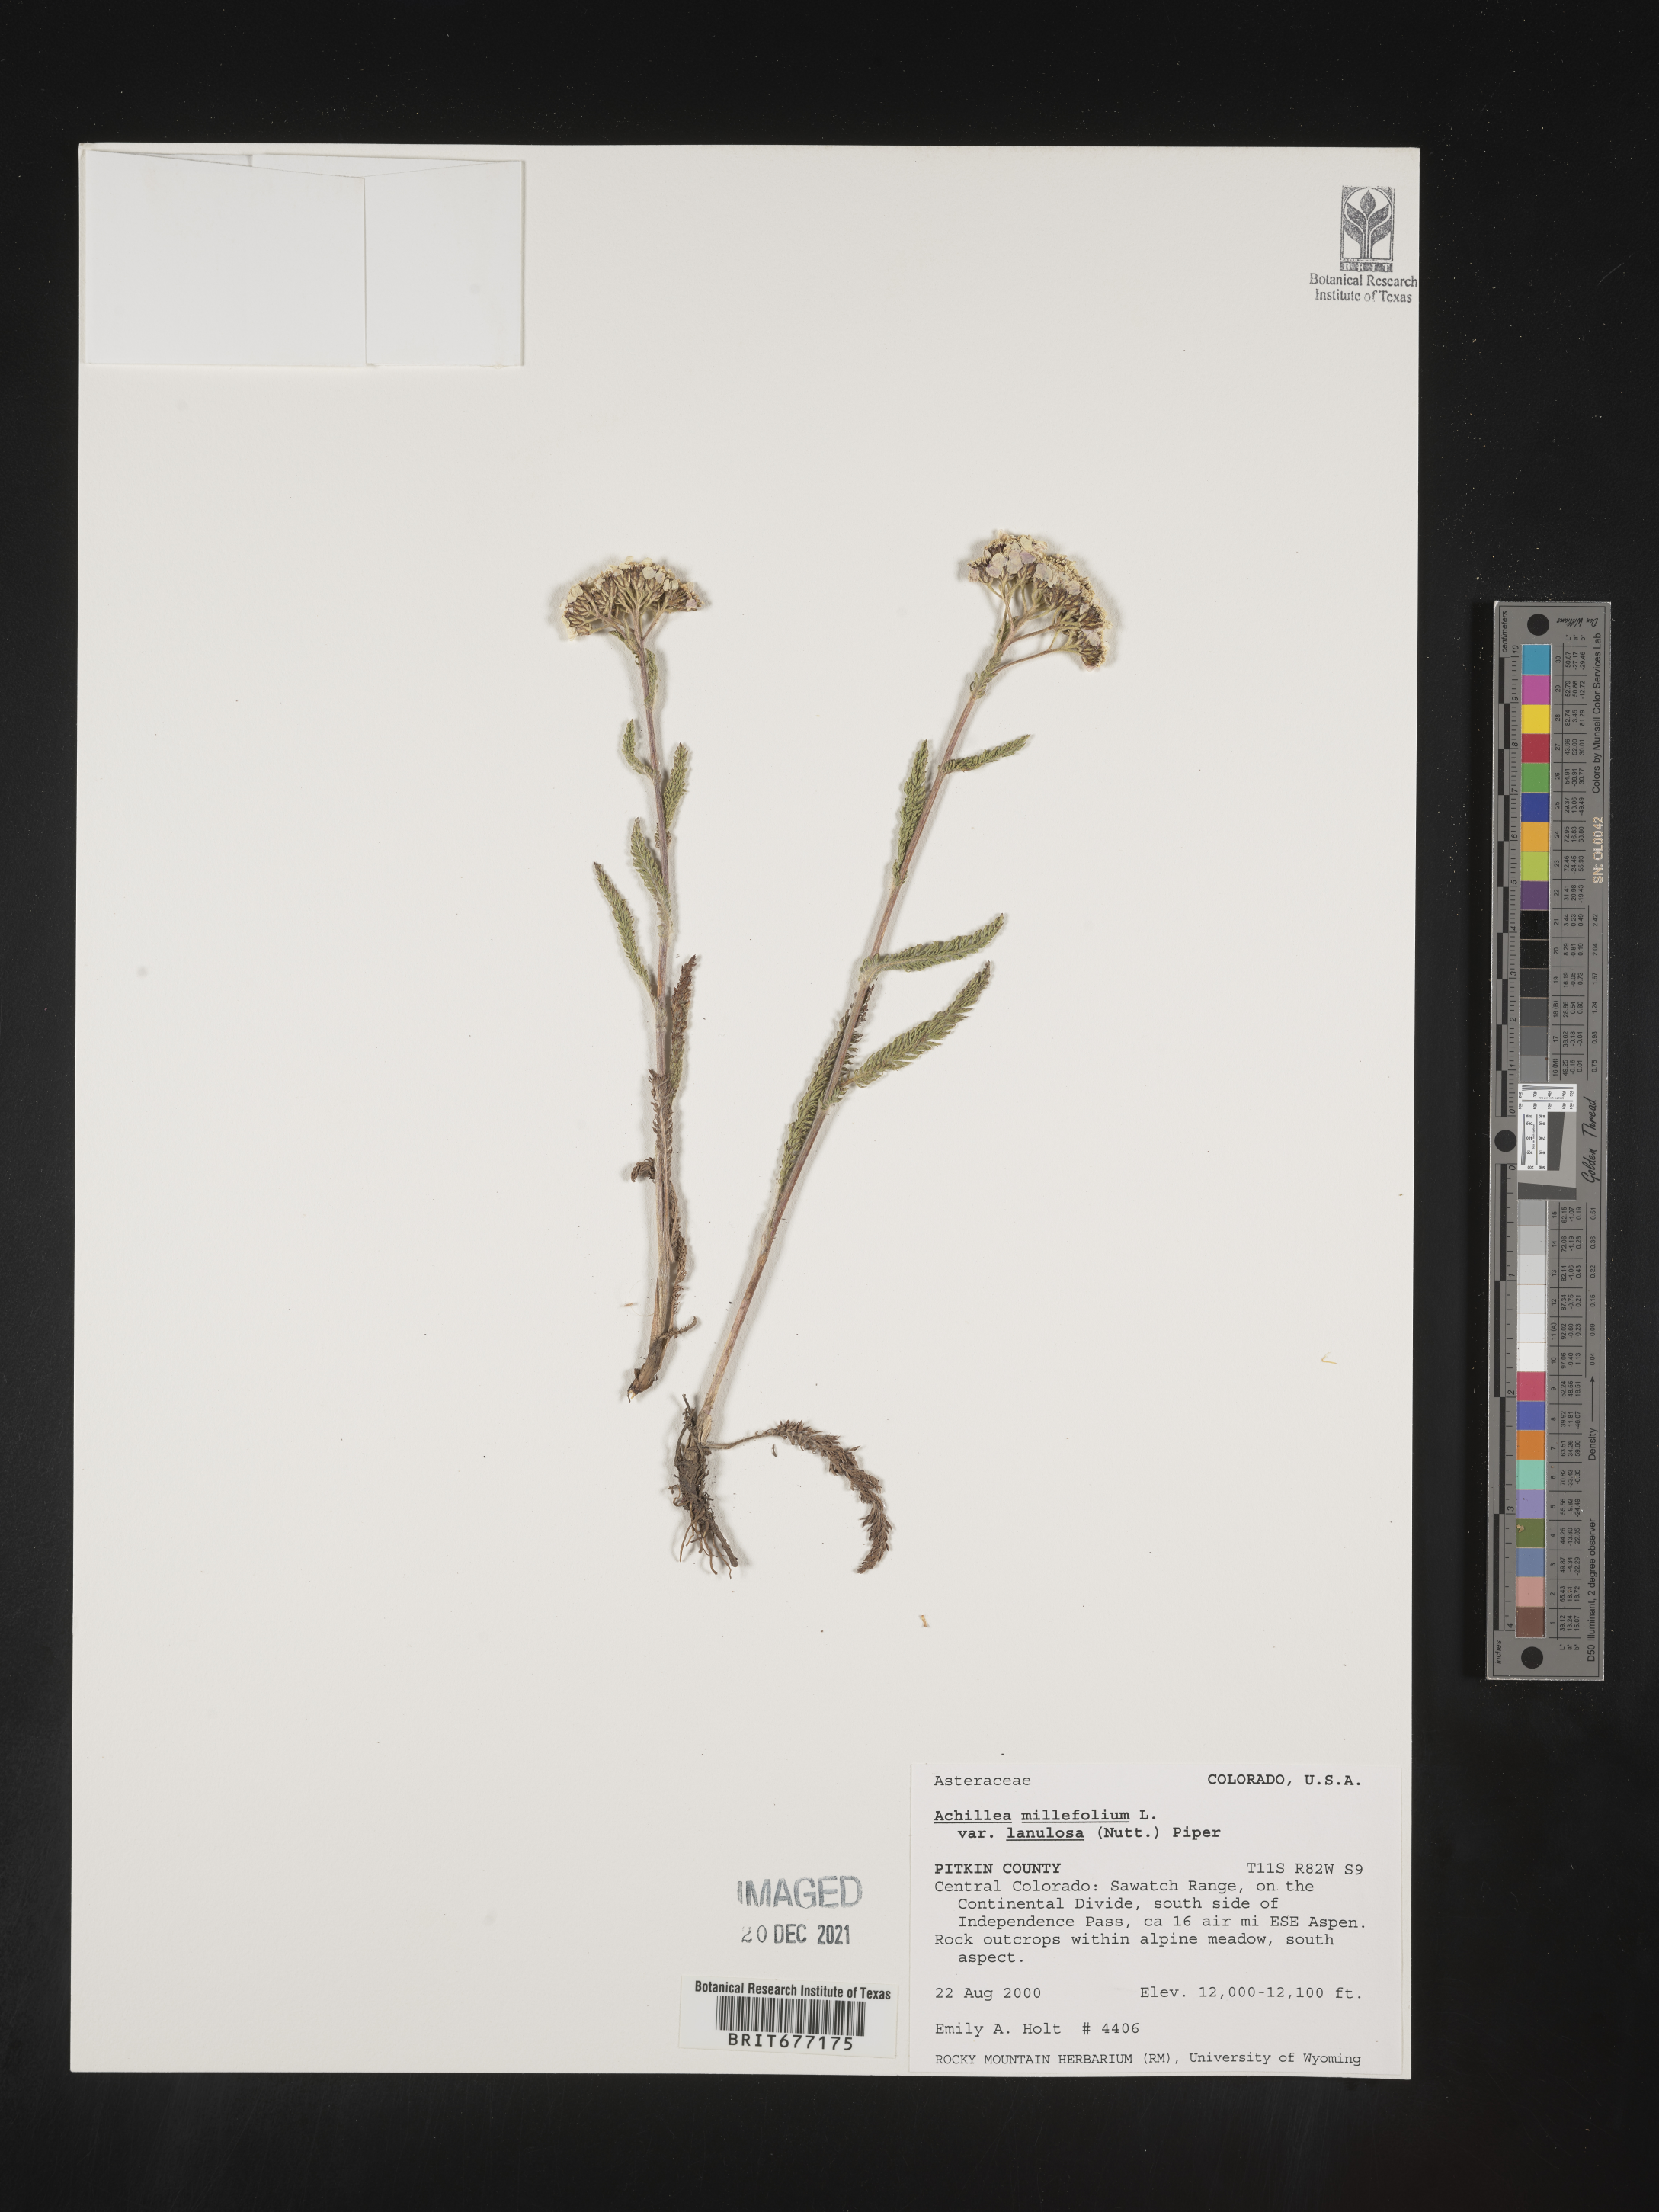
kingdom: Plantae
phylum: Tracheophyta
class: Magnoliopsida
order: Asterales
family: Asteraceae
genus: Achillea
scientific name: Achillea millefolium
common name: Yarrow
